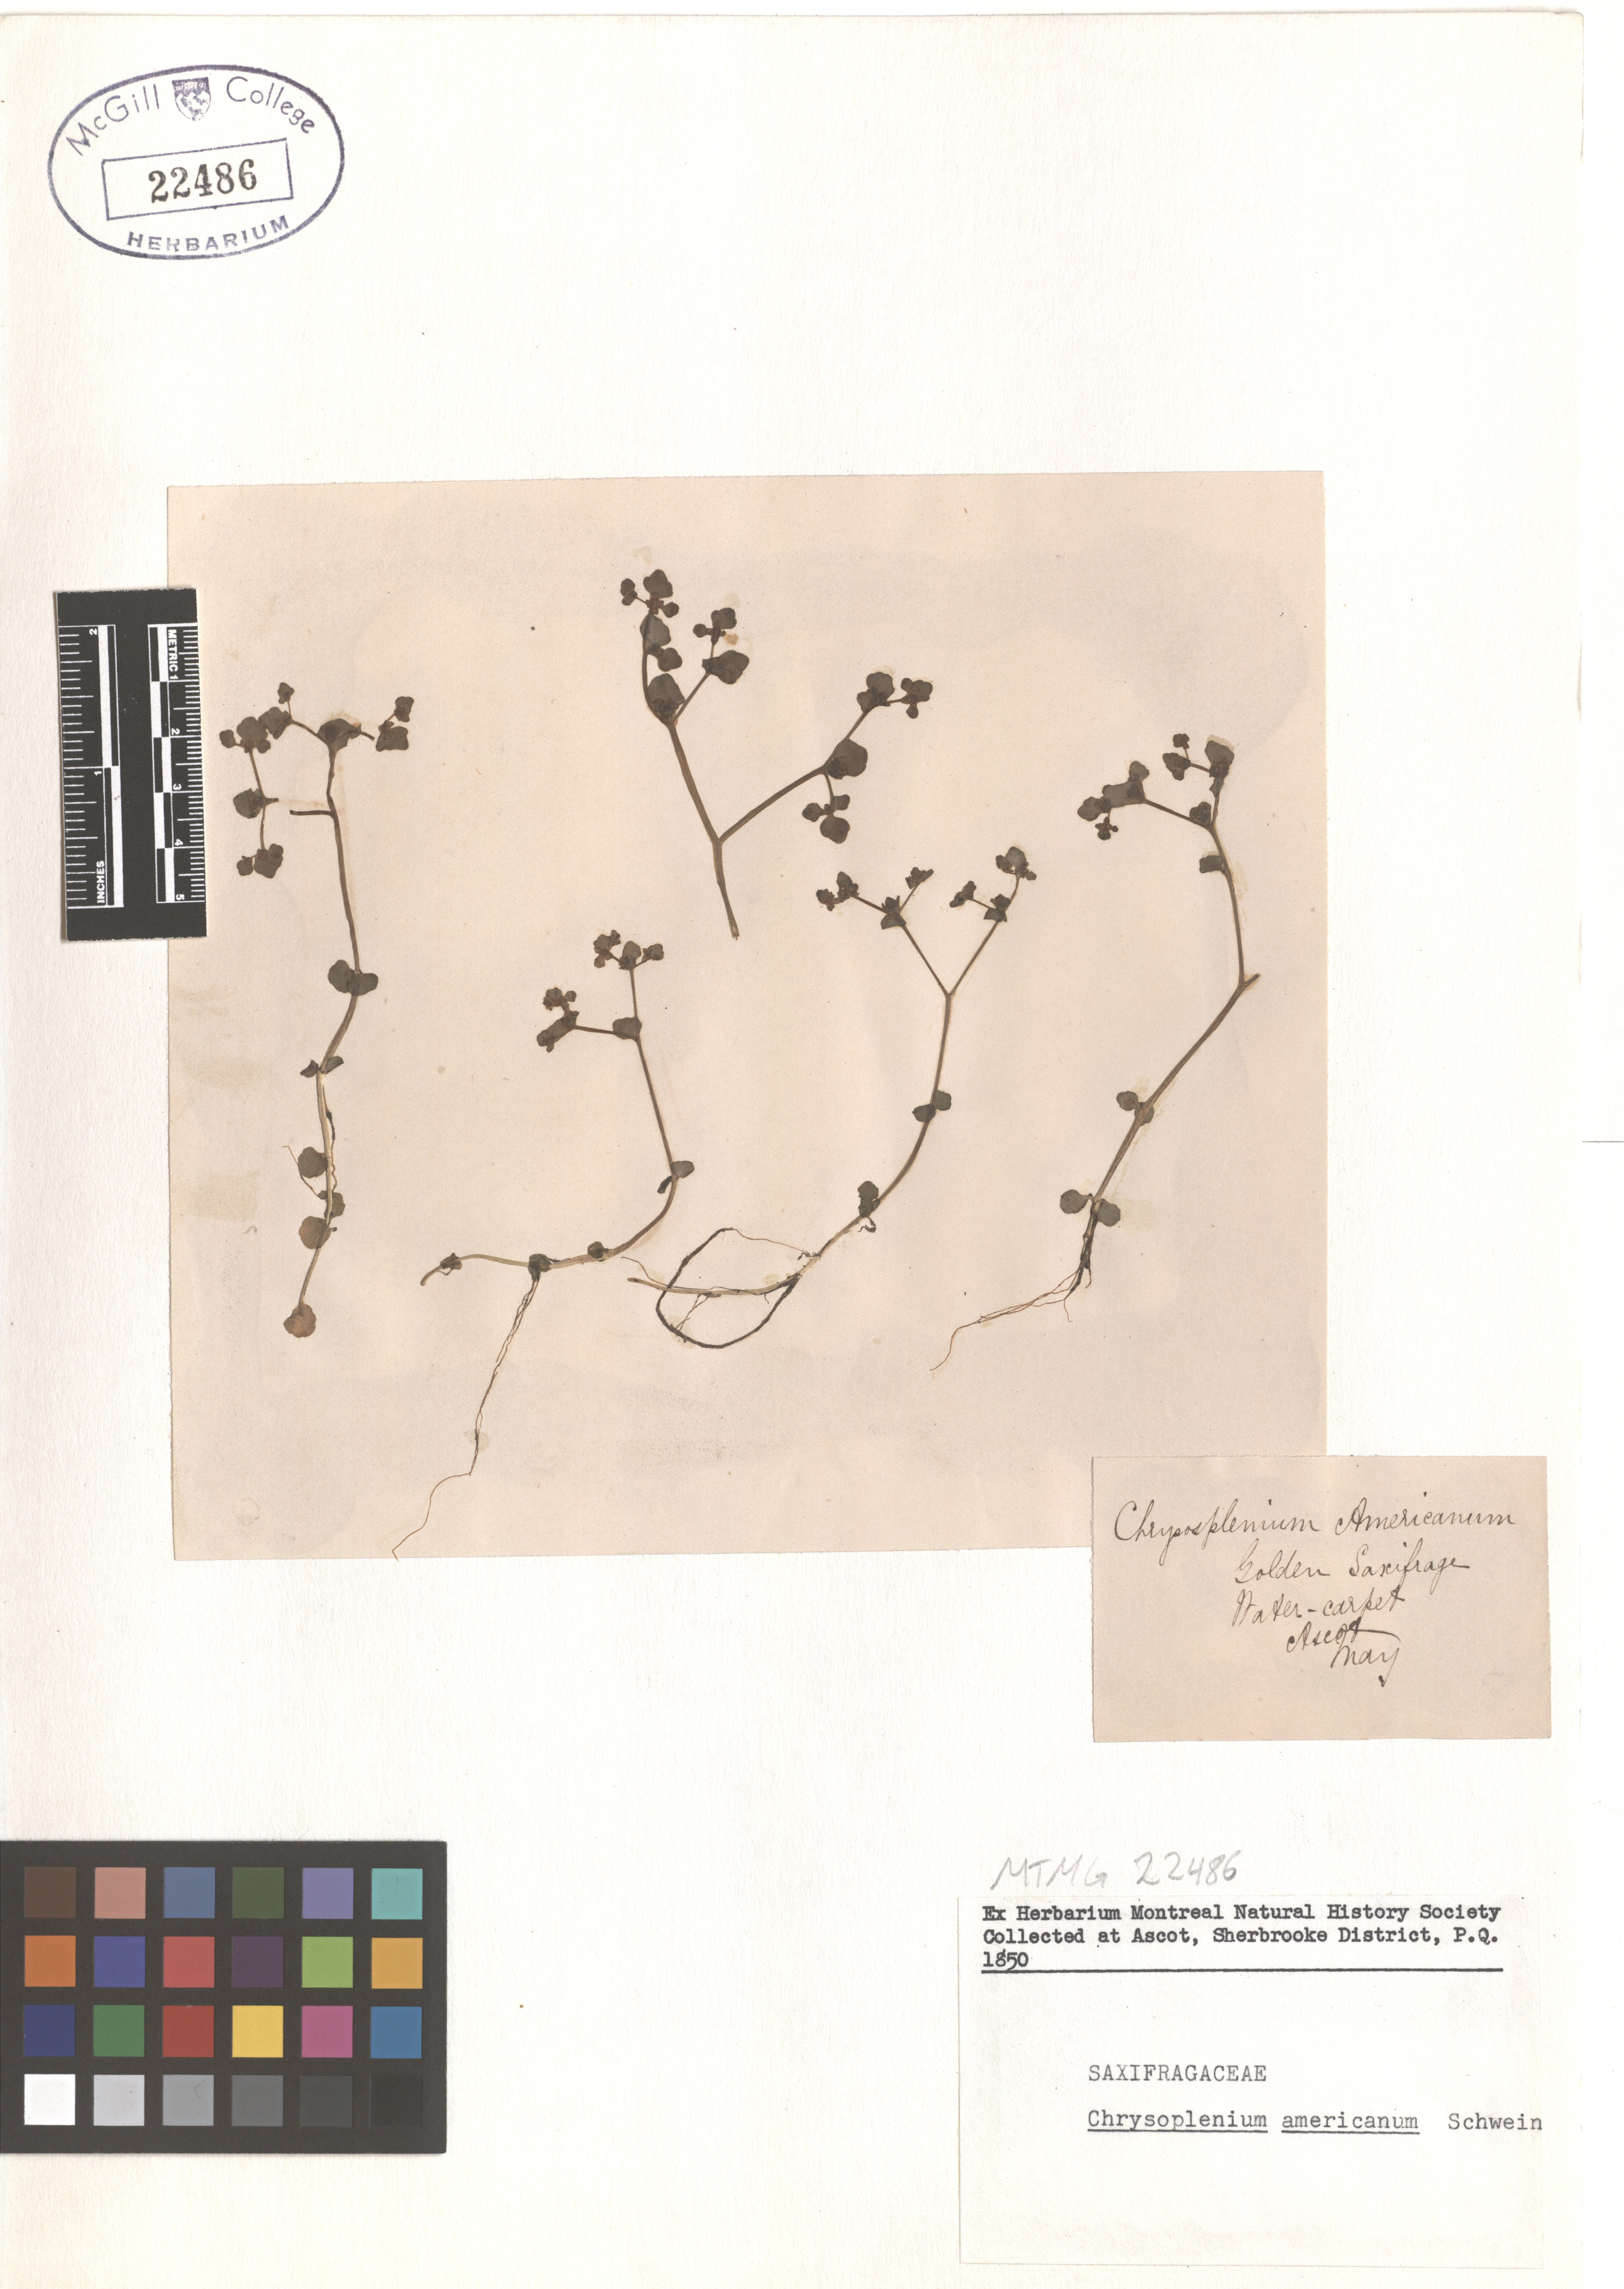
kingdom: Plantae
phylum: Tracheophyta
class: Magnoliopsida
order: Saxifragales
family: Saxifragaceae
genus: Chrysosplenium
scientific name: Chrysosplenium americanum
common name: American golden-saxifrage
